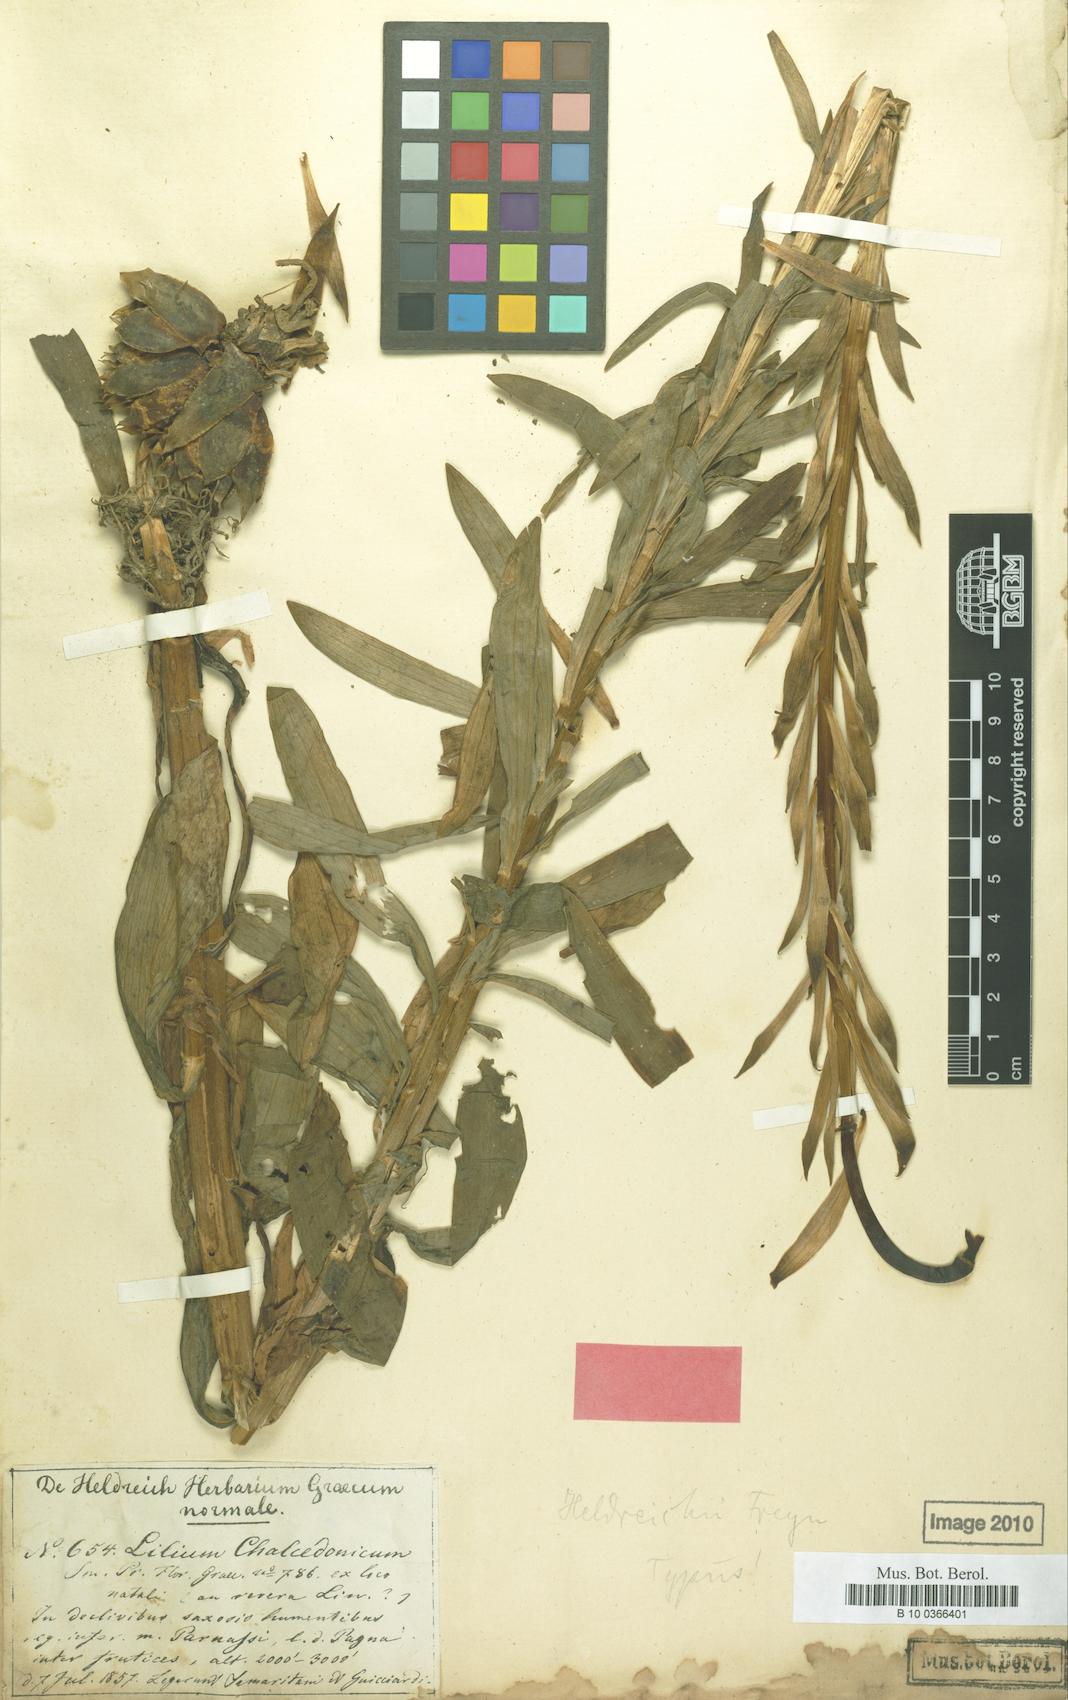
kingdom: Plantae
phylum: Tracheophyta
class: Liliopsida
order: Liliales
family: Liliaceae
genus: Lilium
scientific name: Lilium chalcedonicum
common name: Red martagon of constantinople
